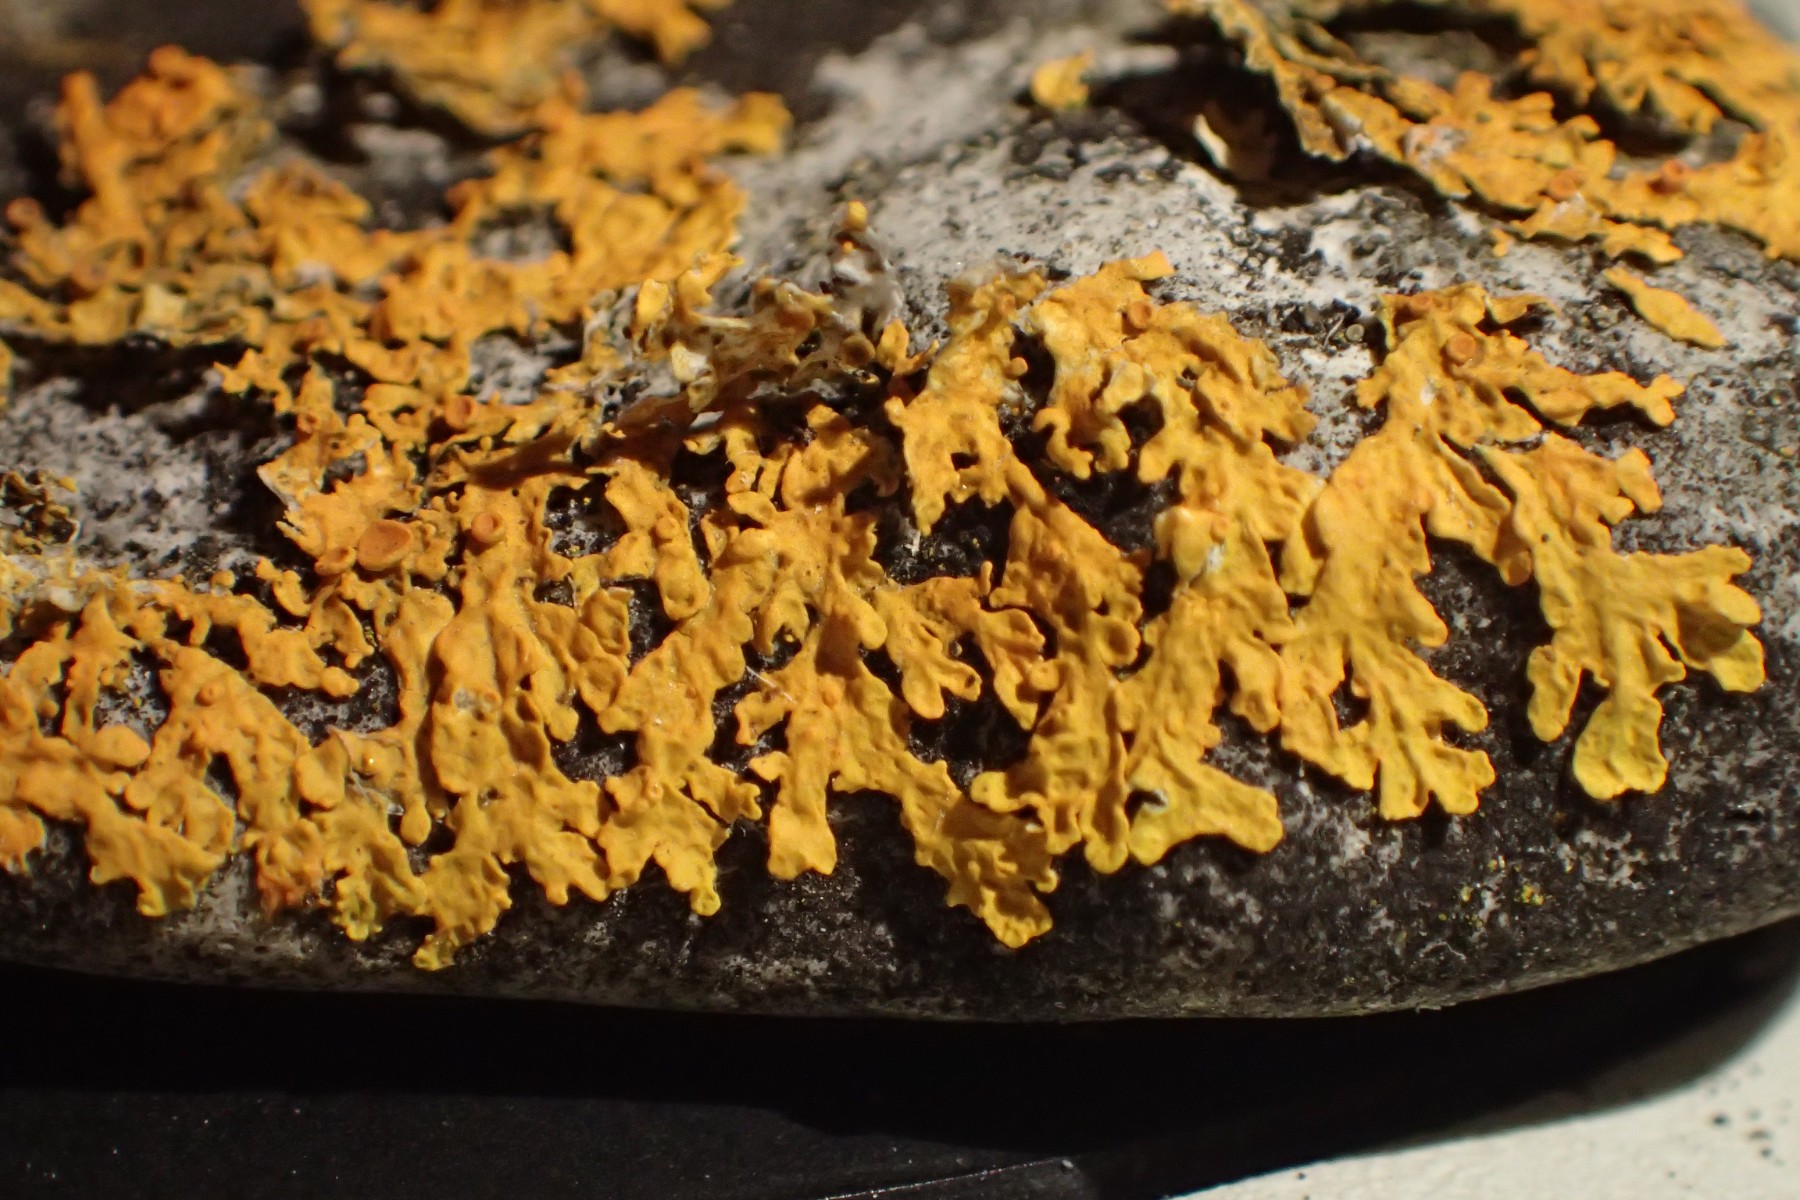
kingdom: Fungi
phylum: Ascomycota
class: Lecanoromycetes
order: Teloschistales
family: Teloschistaceae
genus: Xanthoria
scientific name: Xanthoria aureola
